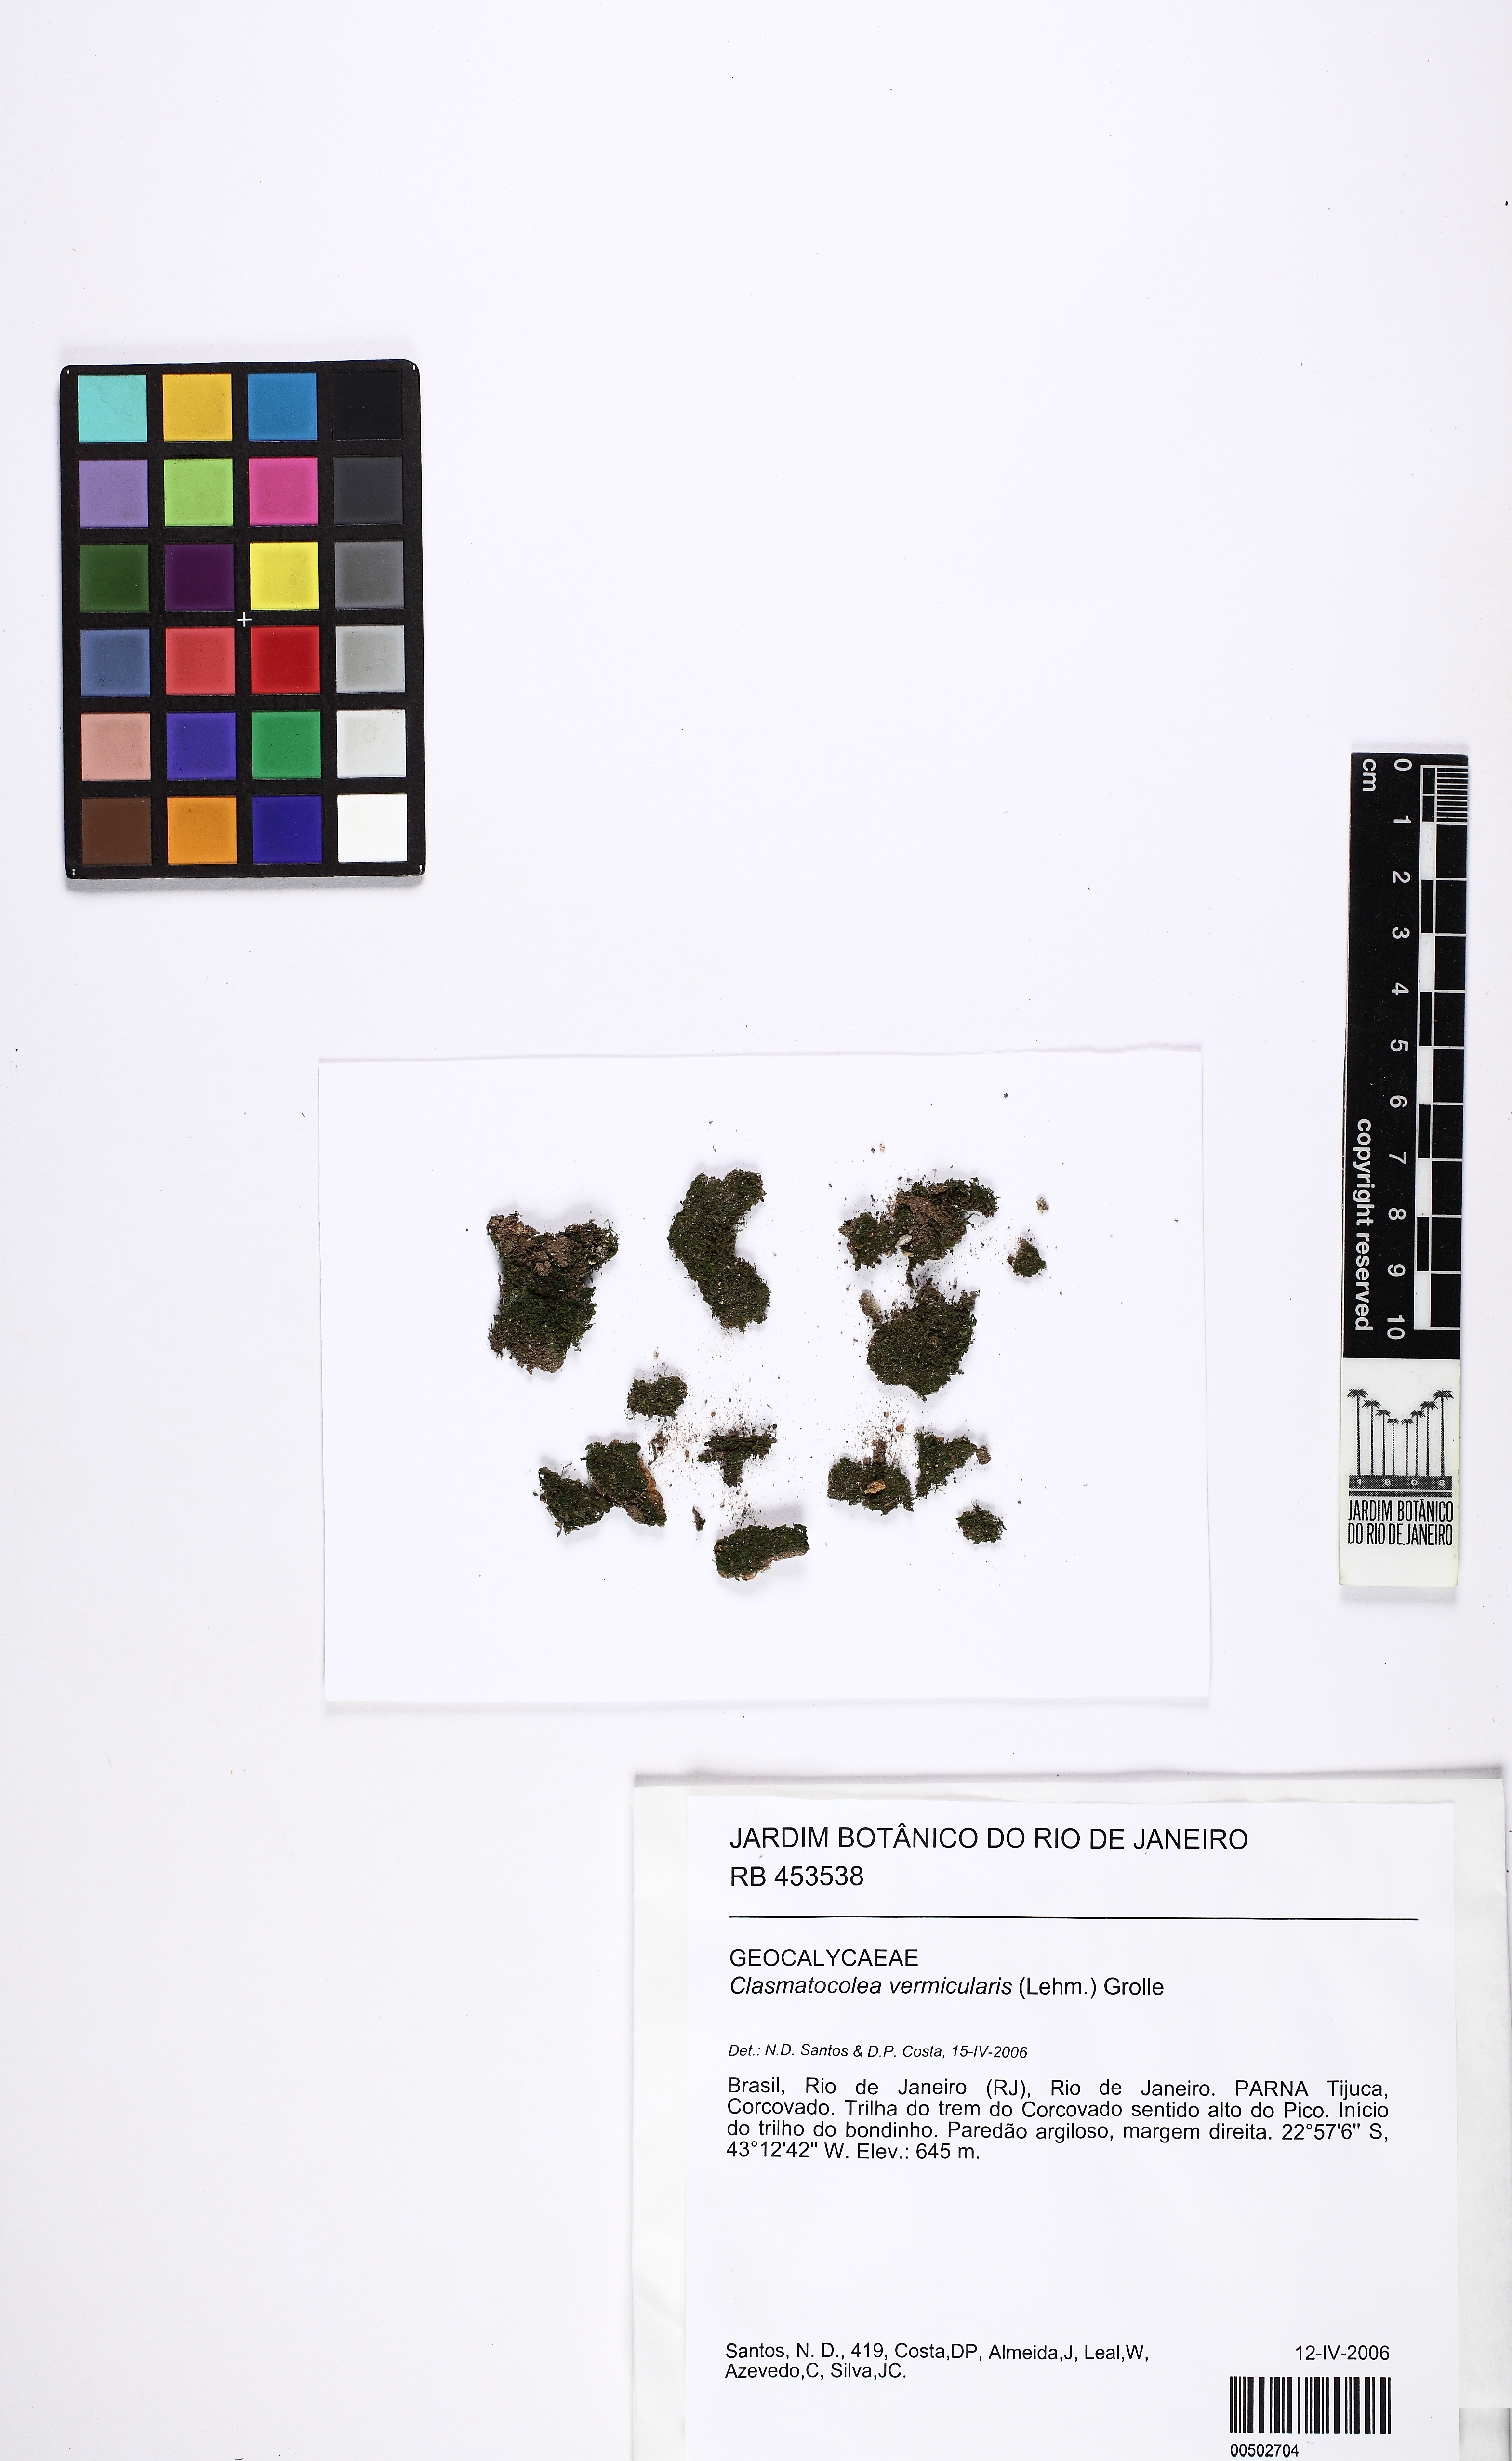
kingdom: Plantae
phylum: Marchantiophyta
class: Jungermanniopsida
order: Jungermanniales
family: Lophocoleaceae
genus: Clasmatocolea
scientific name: Clasmatocolea vermicularis
